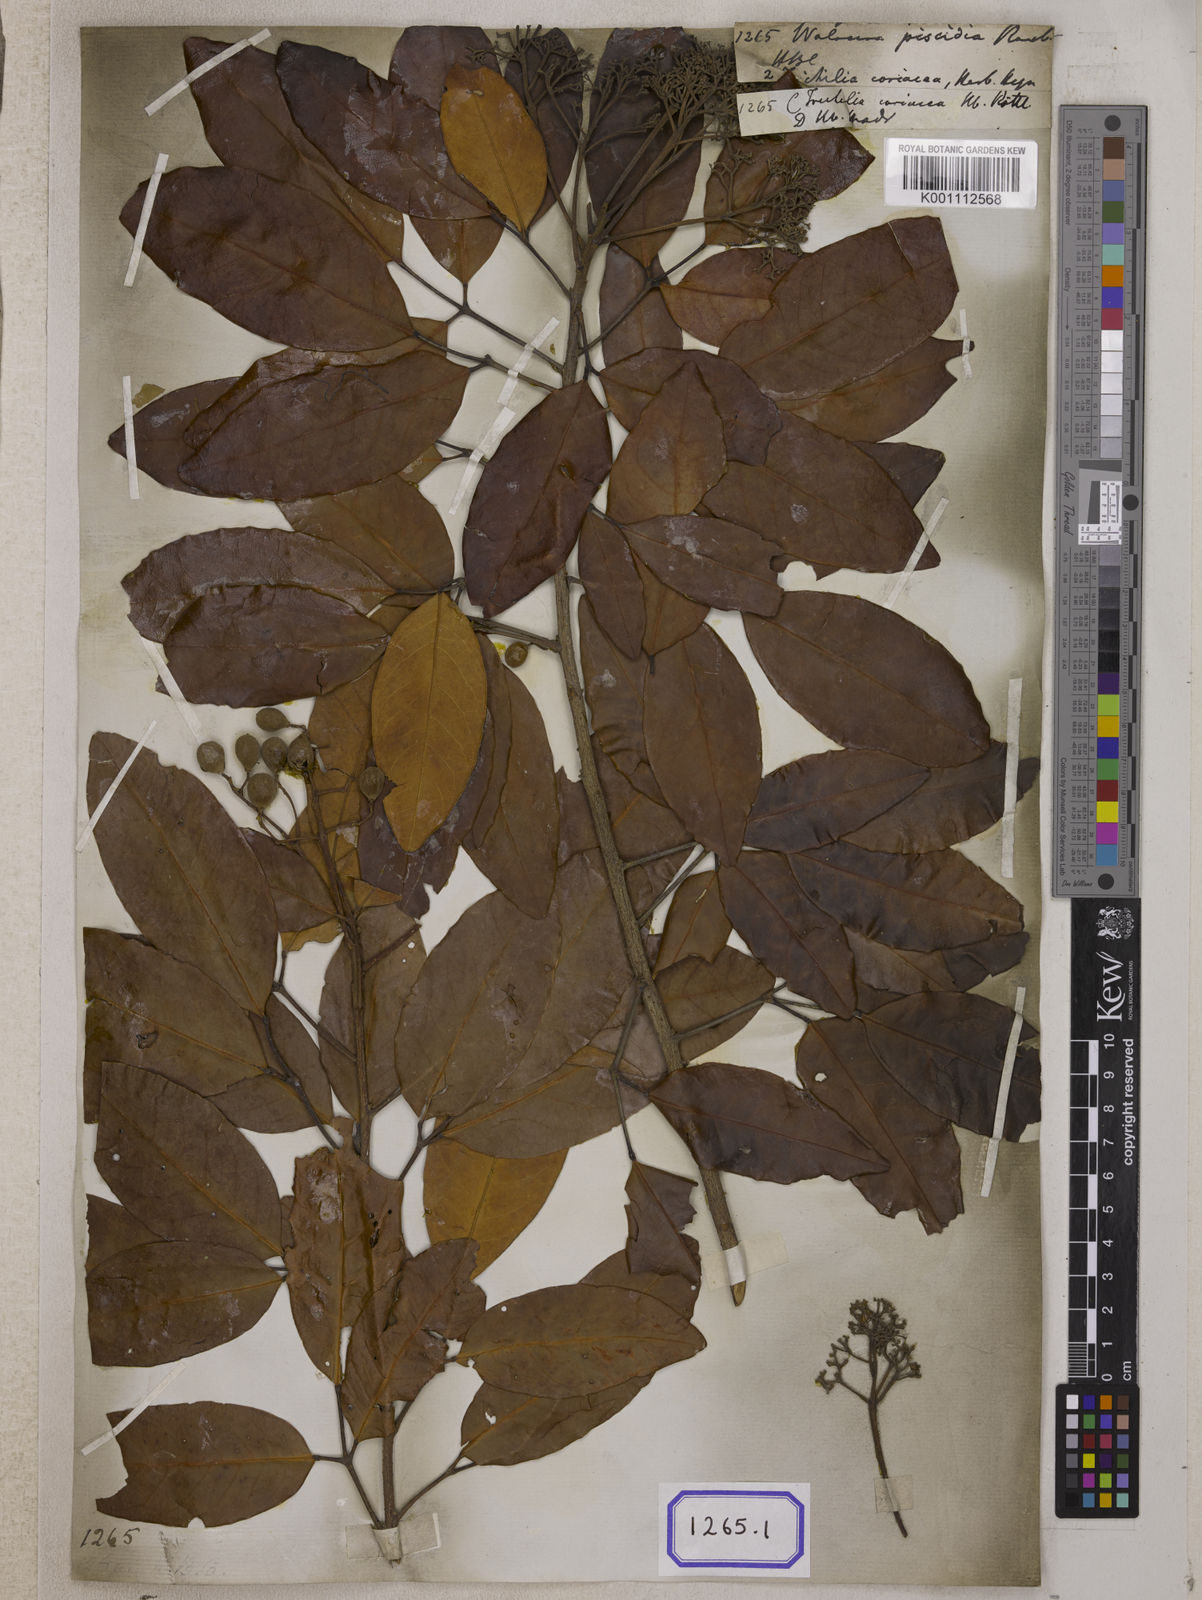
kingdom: Plantae
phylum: Tracheophyta
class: Magnoliopsida
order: Sapindales
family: Meliaceae
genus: Walsura
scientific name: Walsura trifoliolata
